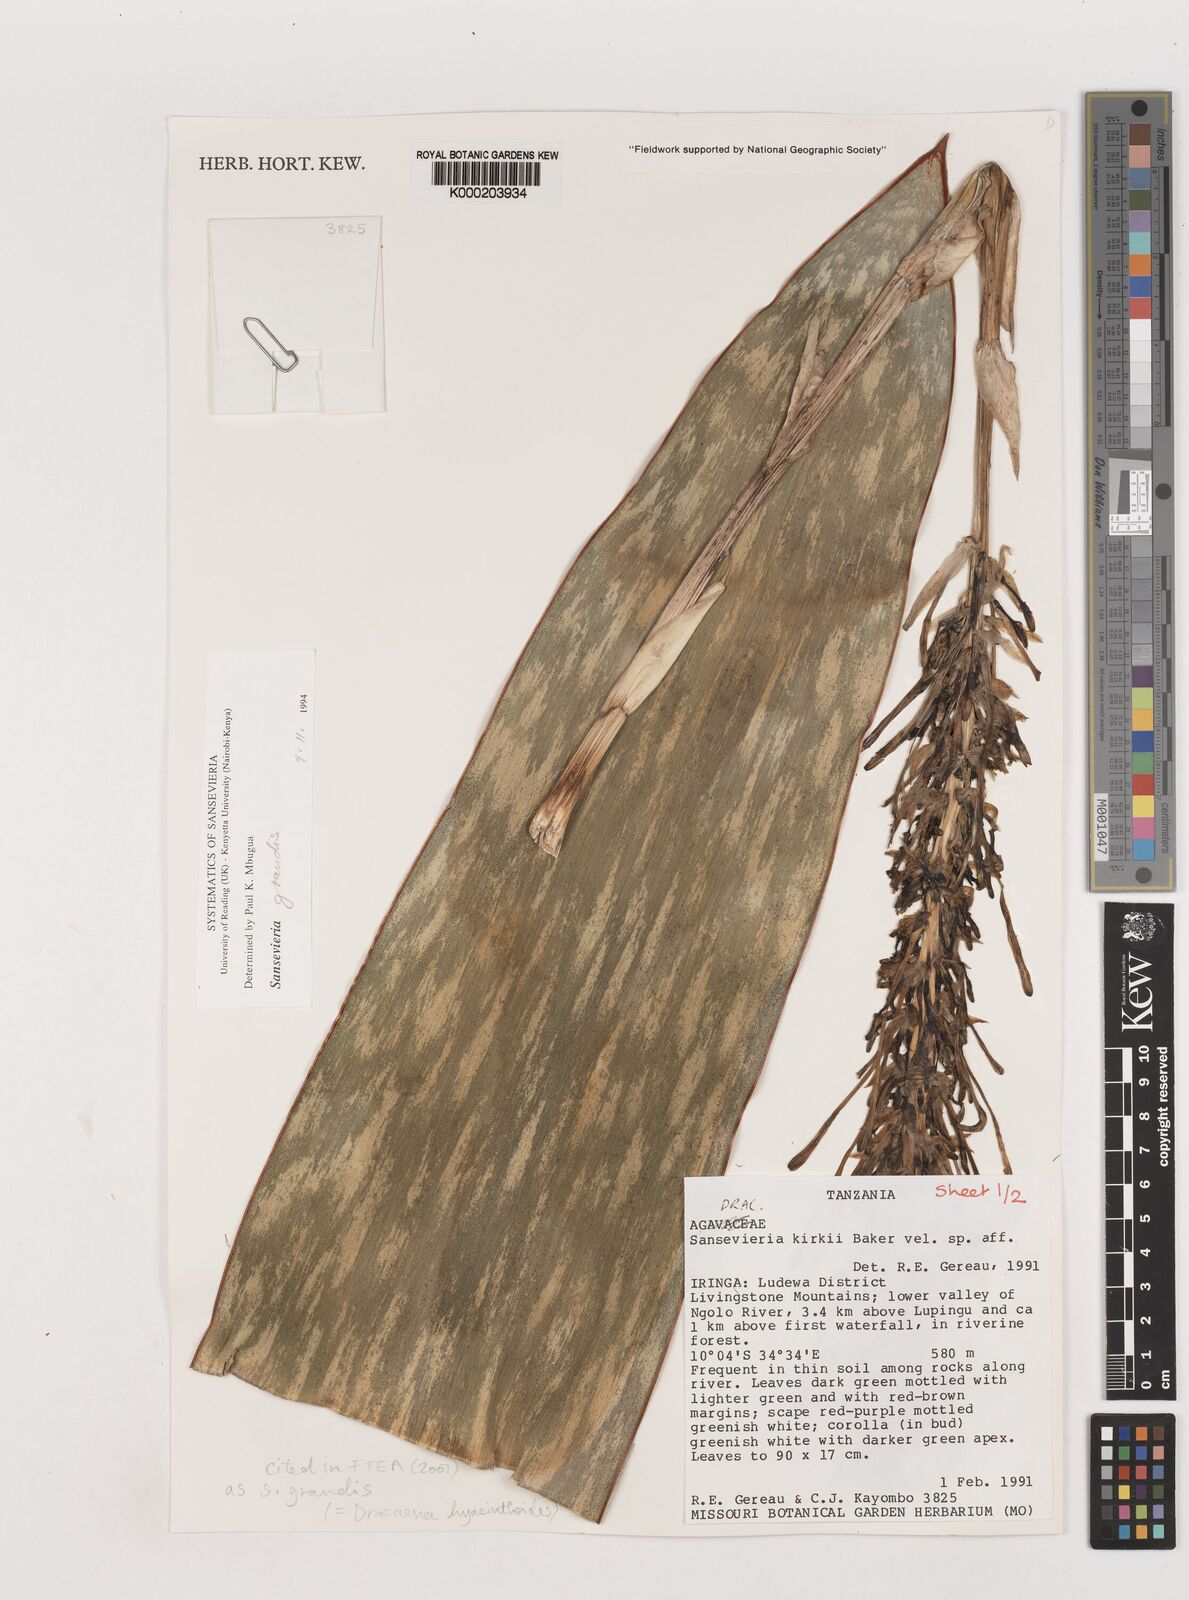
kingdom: Plantae
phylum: Tracheophyta
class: Liliopsida
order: Asparagales
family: Asparagaceae
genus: Dracaena
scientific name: Dracaena hyacinthoides
